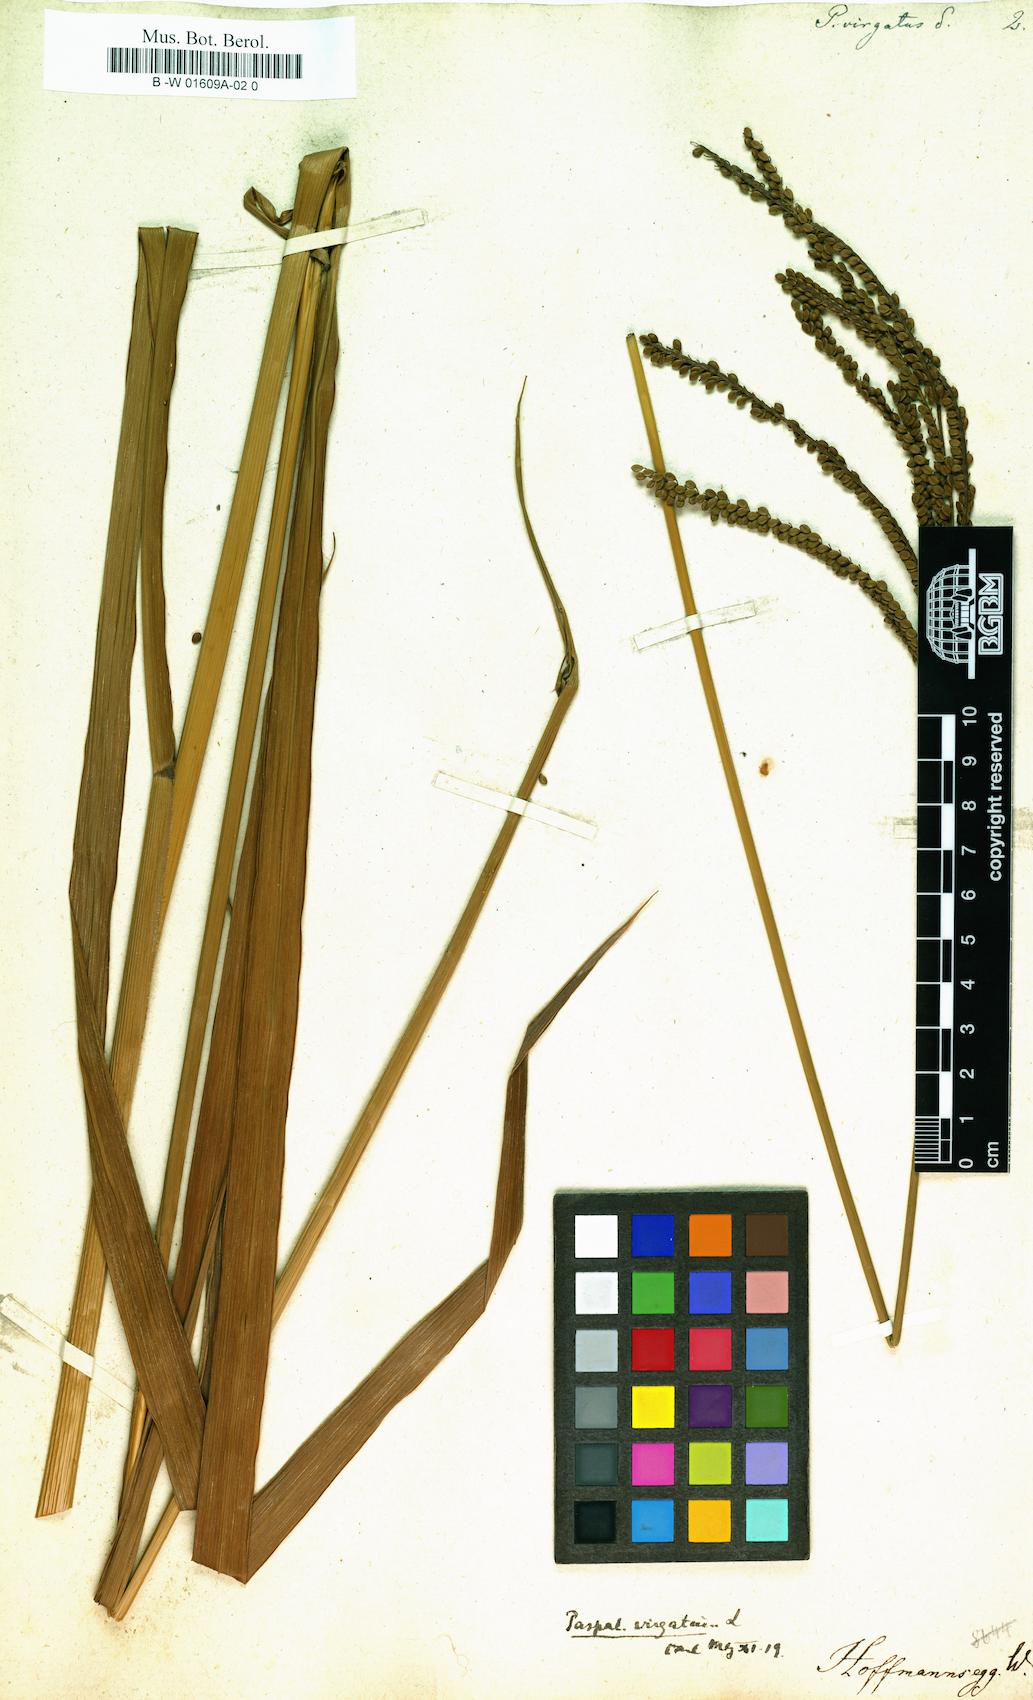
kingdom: Plantae
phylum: Tracheophyta
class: Liliopsida
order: Poales
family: Poaceae
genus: Paspalum
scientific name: Paspalum virgatum
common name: Talquezal
